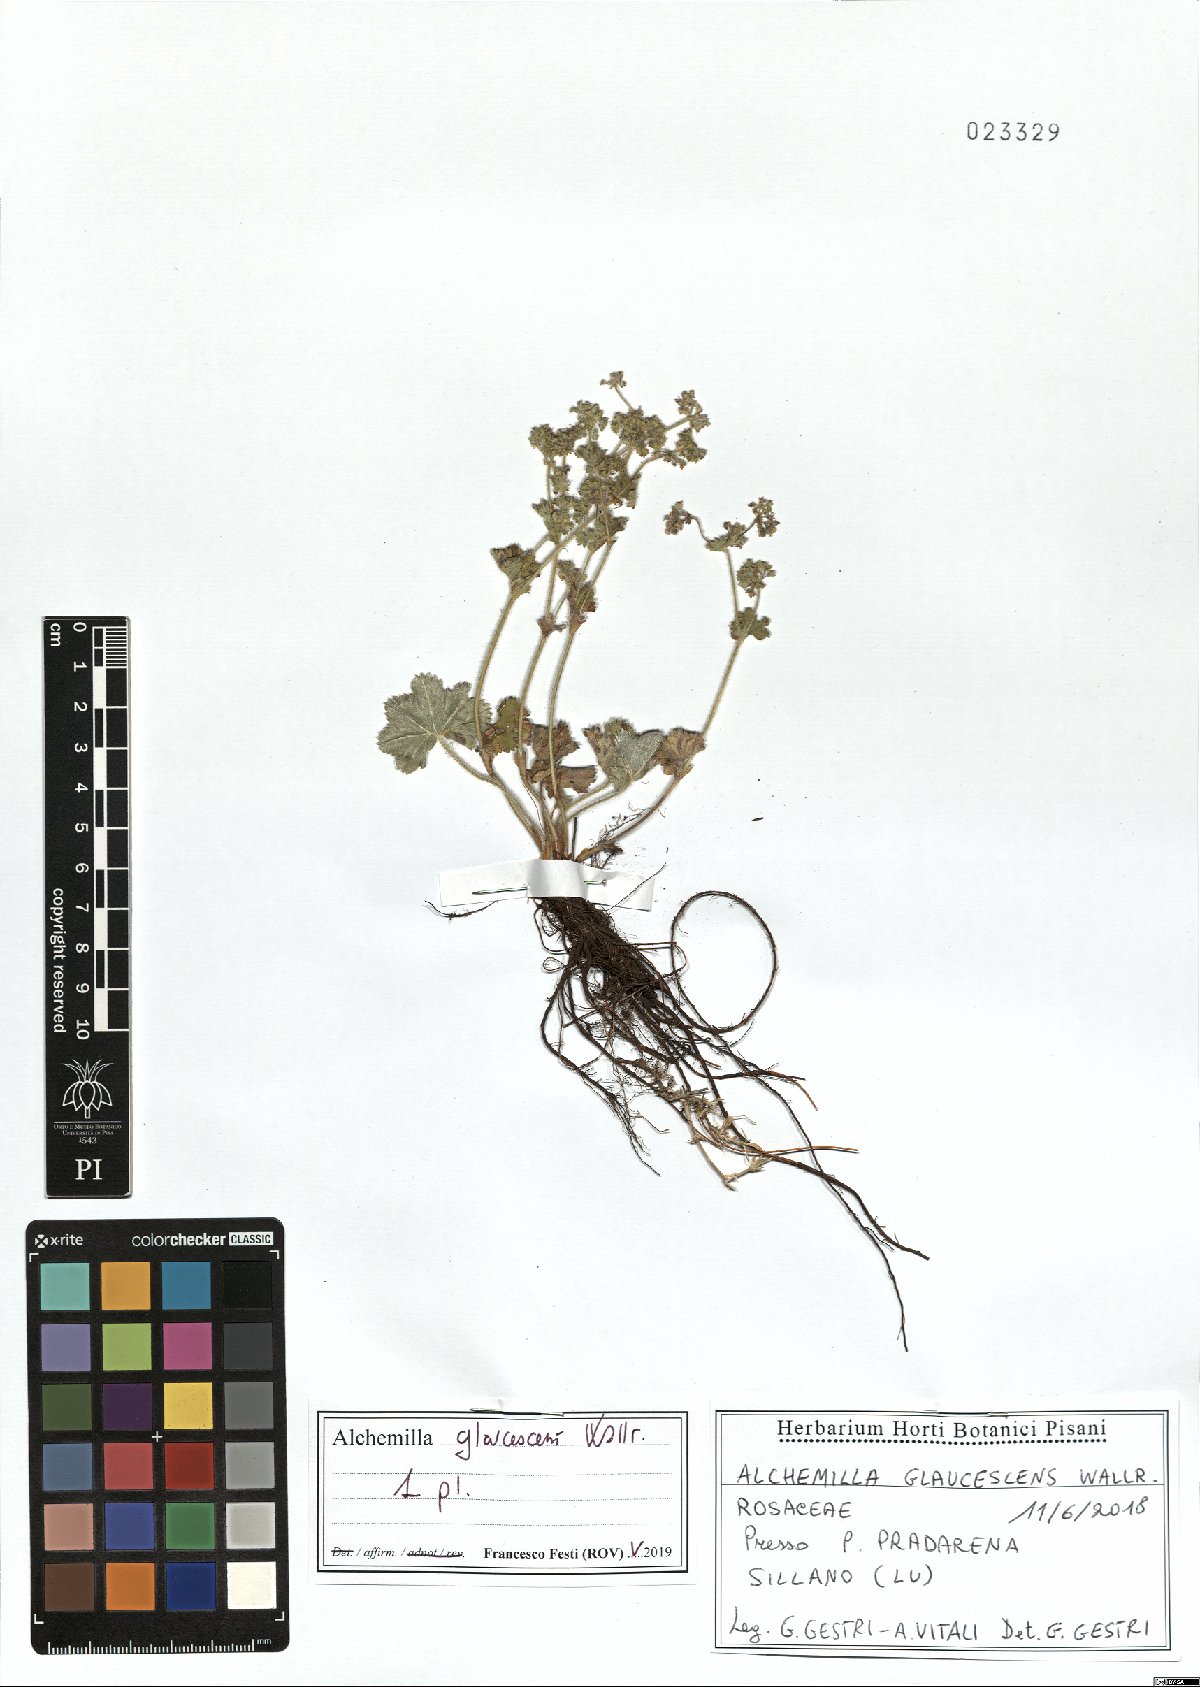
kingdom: Plantae
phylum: Tracheophyta
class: Magnoliopsida
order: Rosales
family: Rosaceae
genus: Alchemilla
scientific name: Alchemilla glaucescens
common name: Silky lady's mantle
